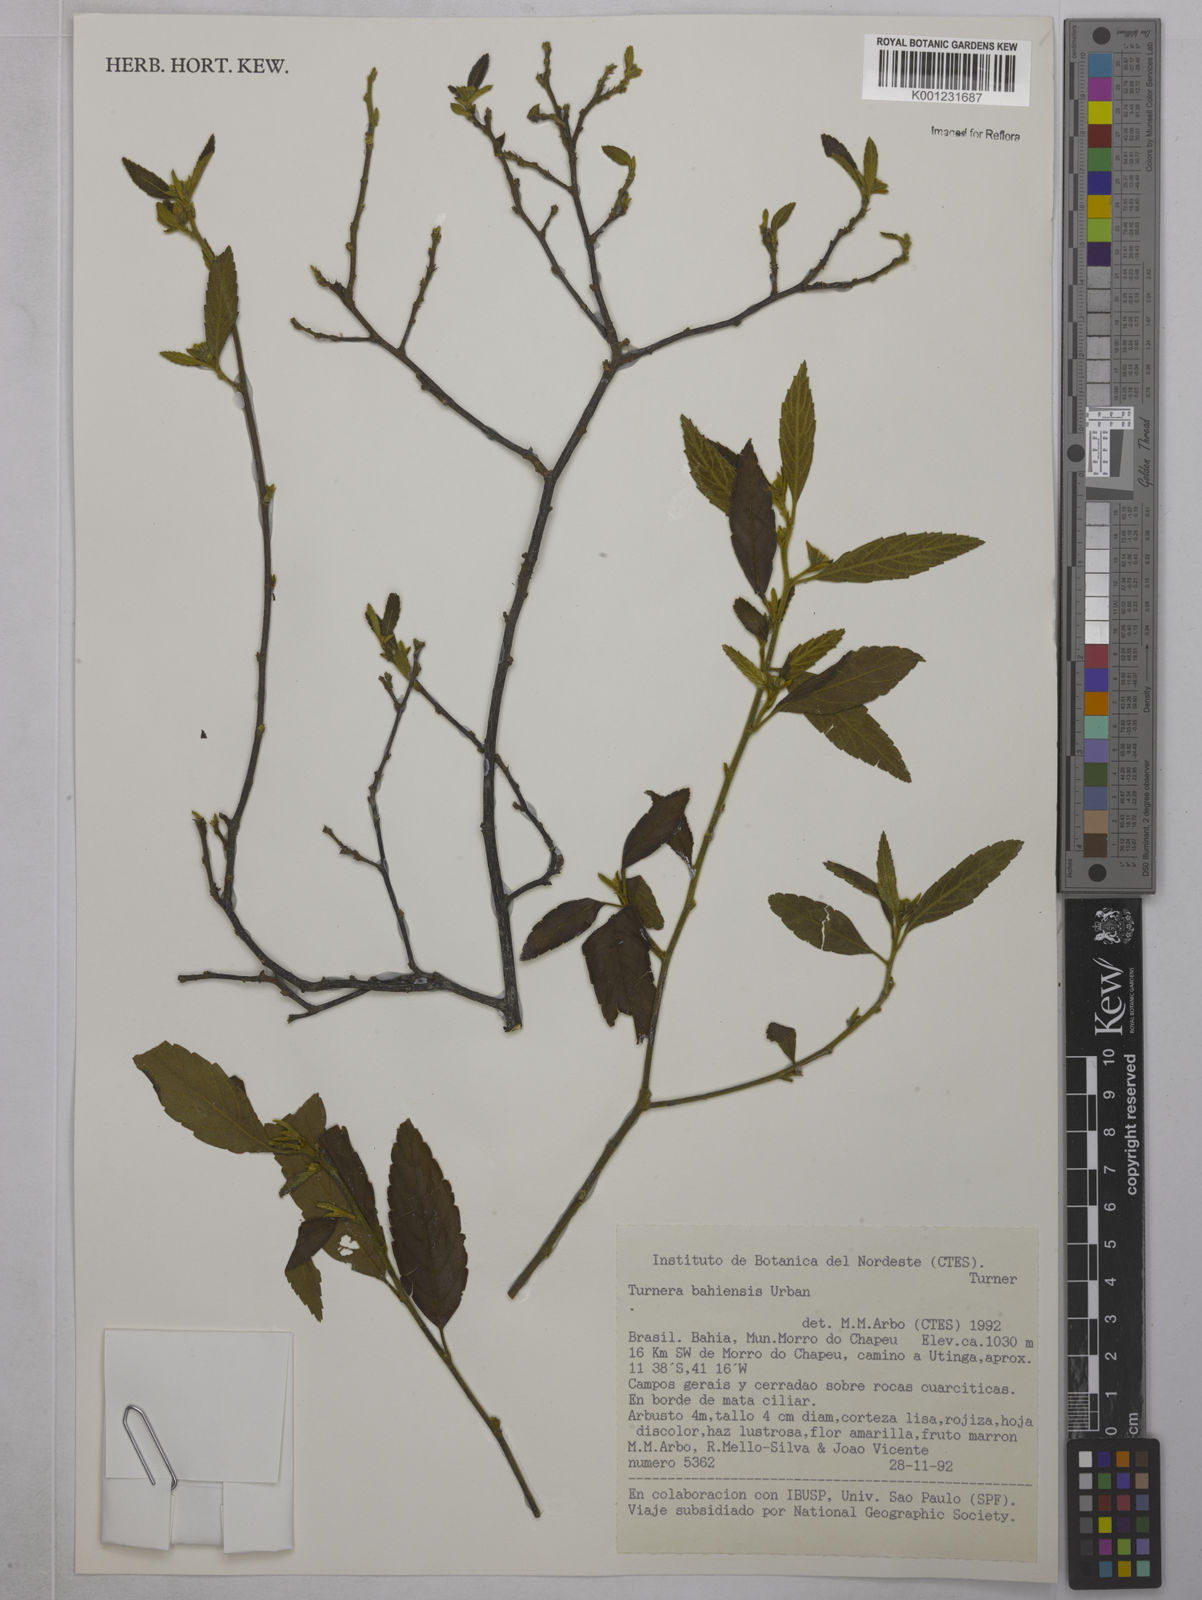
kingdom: Plantae
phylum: Tracheophyta
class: Magnoliopsida
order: Malpighiales
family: Turneraceae
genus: Turnera
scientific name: Turnera bahiensis
